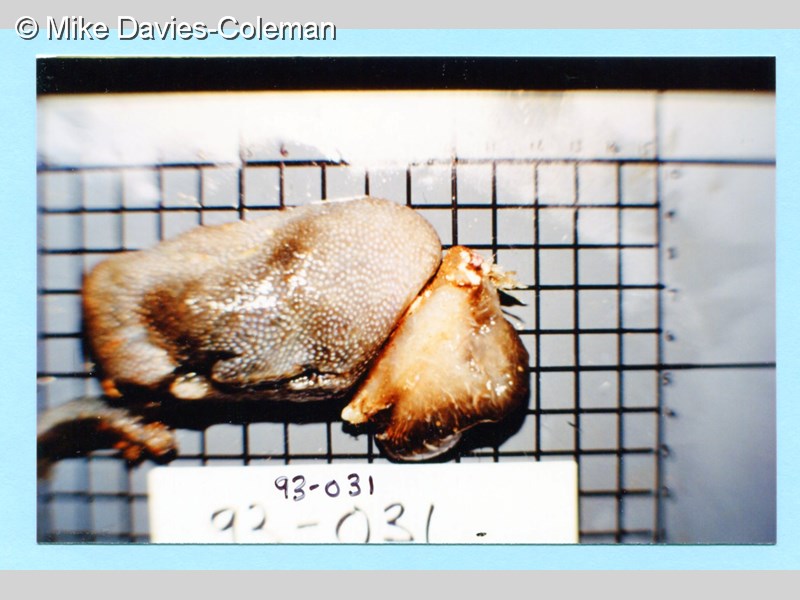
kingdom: Animalia
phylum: Chordata
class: Ascidiacea
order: Aplousobranchia
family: Pseudodistomidae
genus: Pseudodistoma
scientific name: Pseudodistoma
